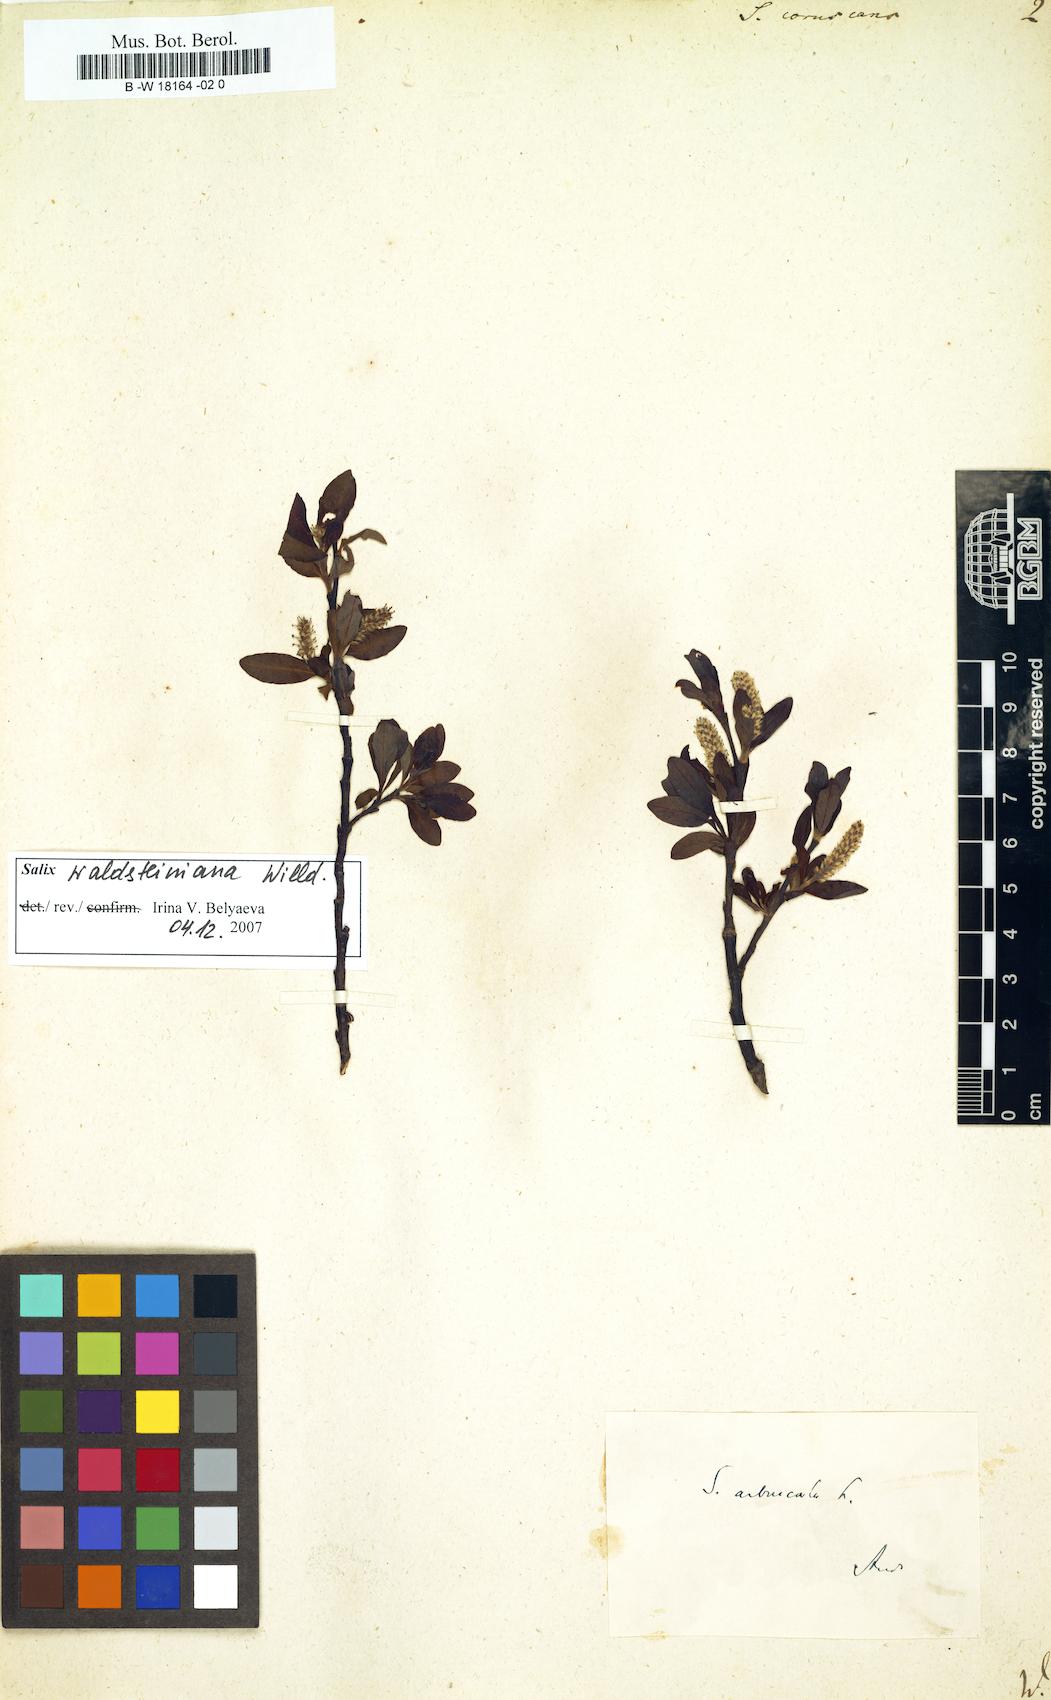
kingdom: Plantae
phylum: Tracheophyta
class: Magnoliopsida
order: Malpighiales
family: Salicaceae
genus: Salix
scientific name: Salix
